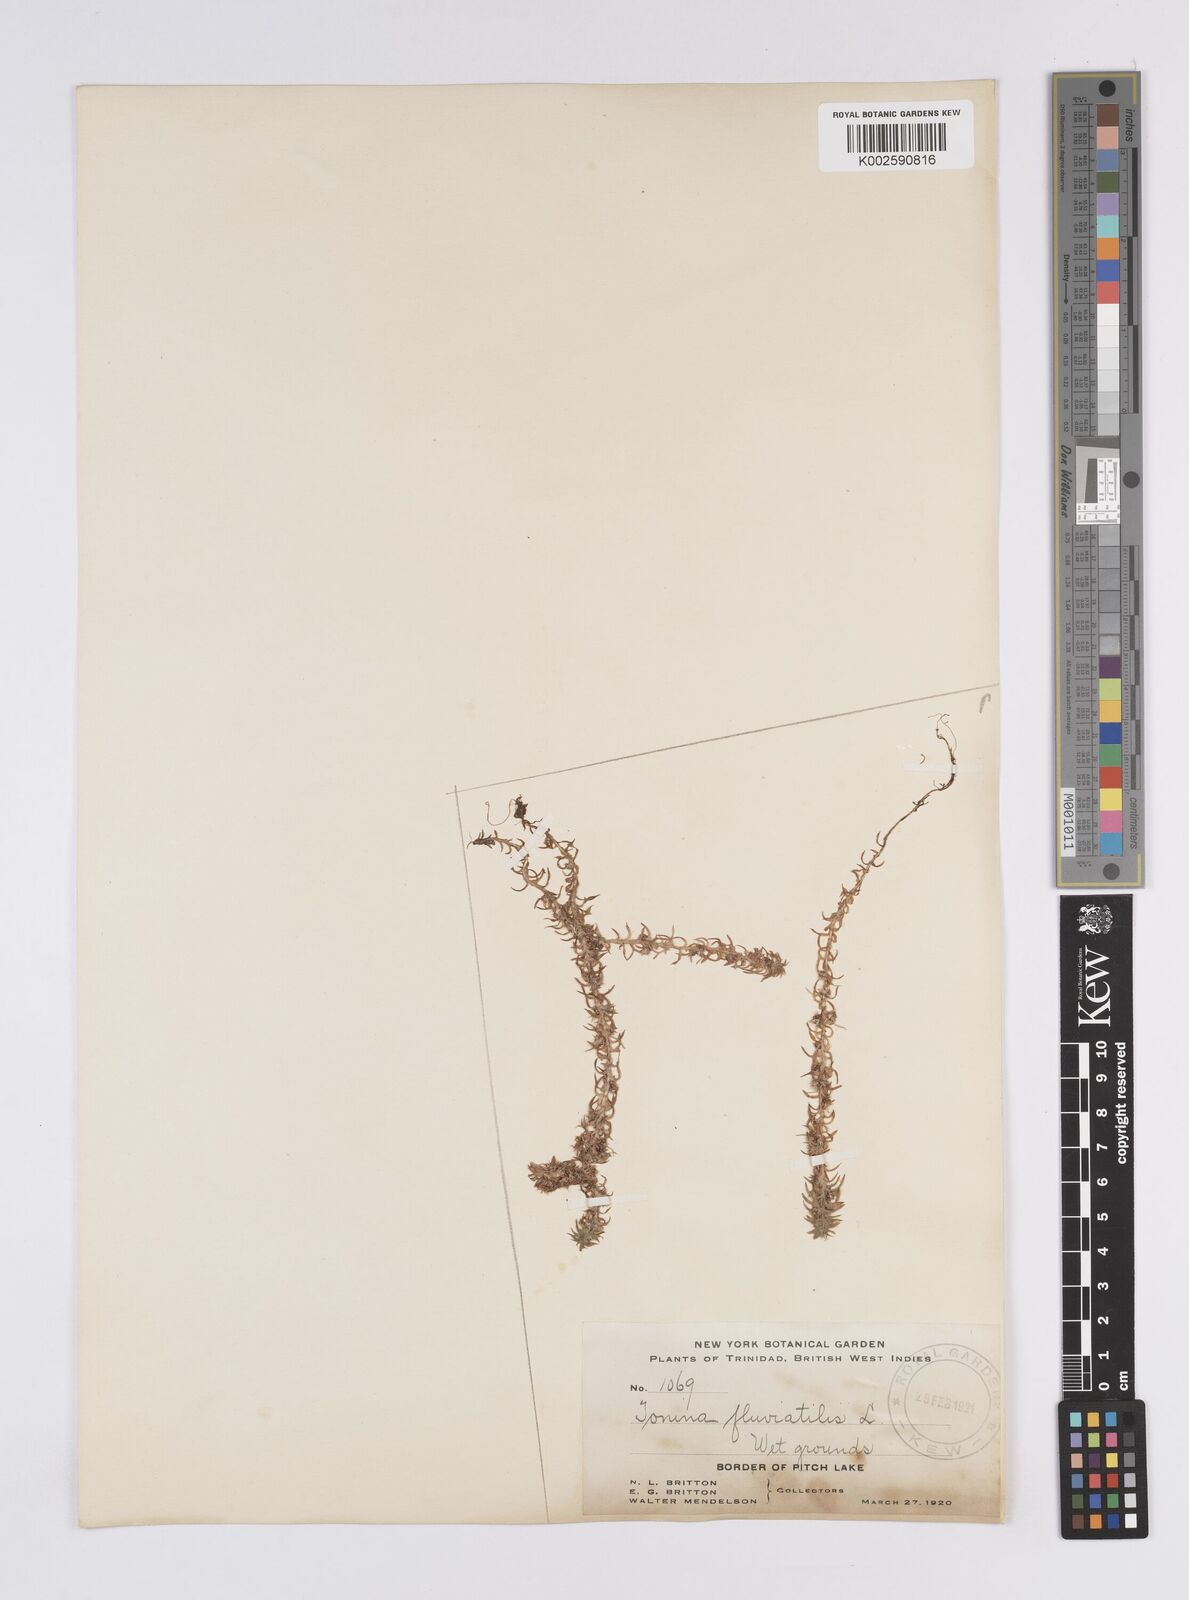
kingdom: Plantae
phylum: Tracheophyta
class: Liliopsida
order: Poales
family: Eriocaulaceae
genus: Paepalanthus
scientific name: Paepalanthus fluviatilis
